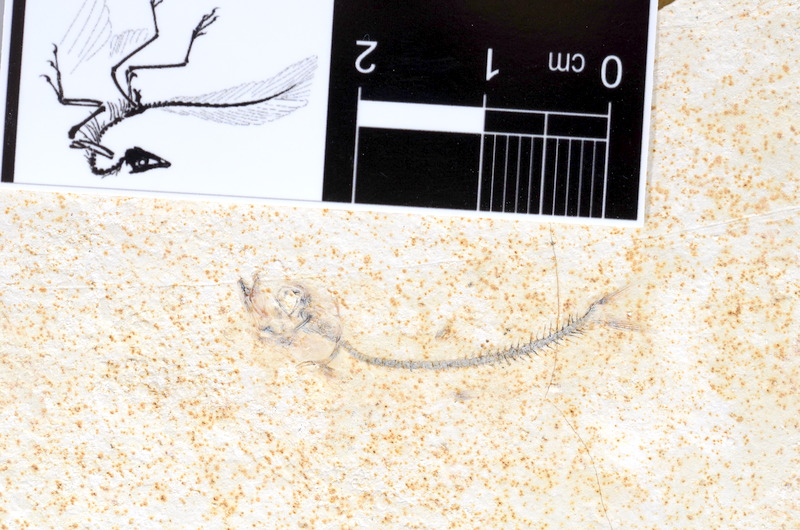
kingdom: Animalia
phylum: Chordata
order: Salmoniformes
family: Orthogonikleithridae
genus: Orthogonikleithrus
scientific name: Orthogonikleithrus hoelli
